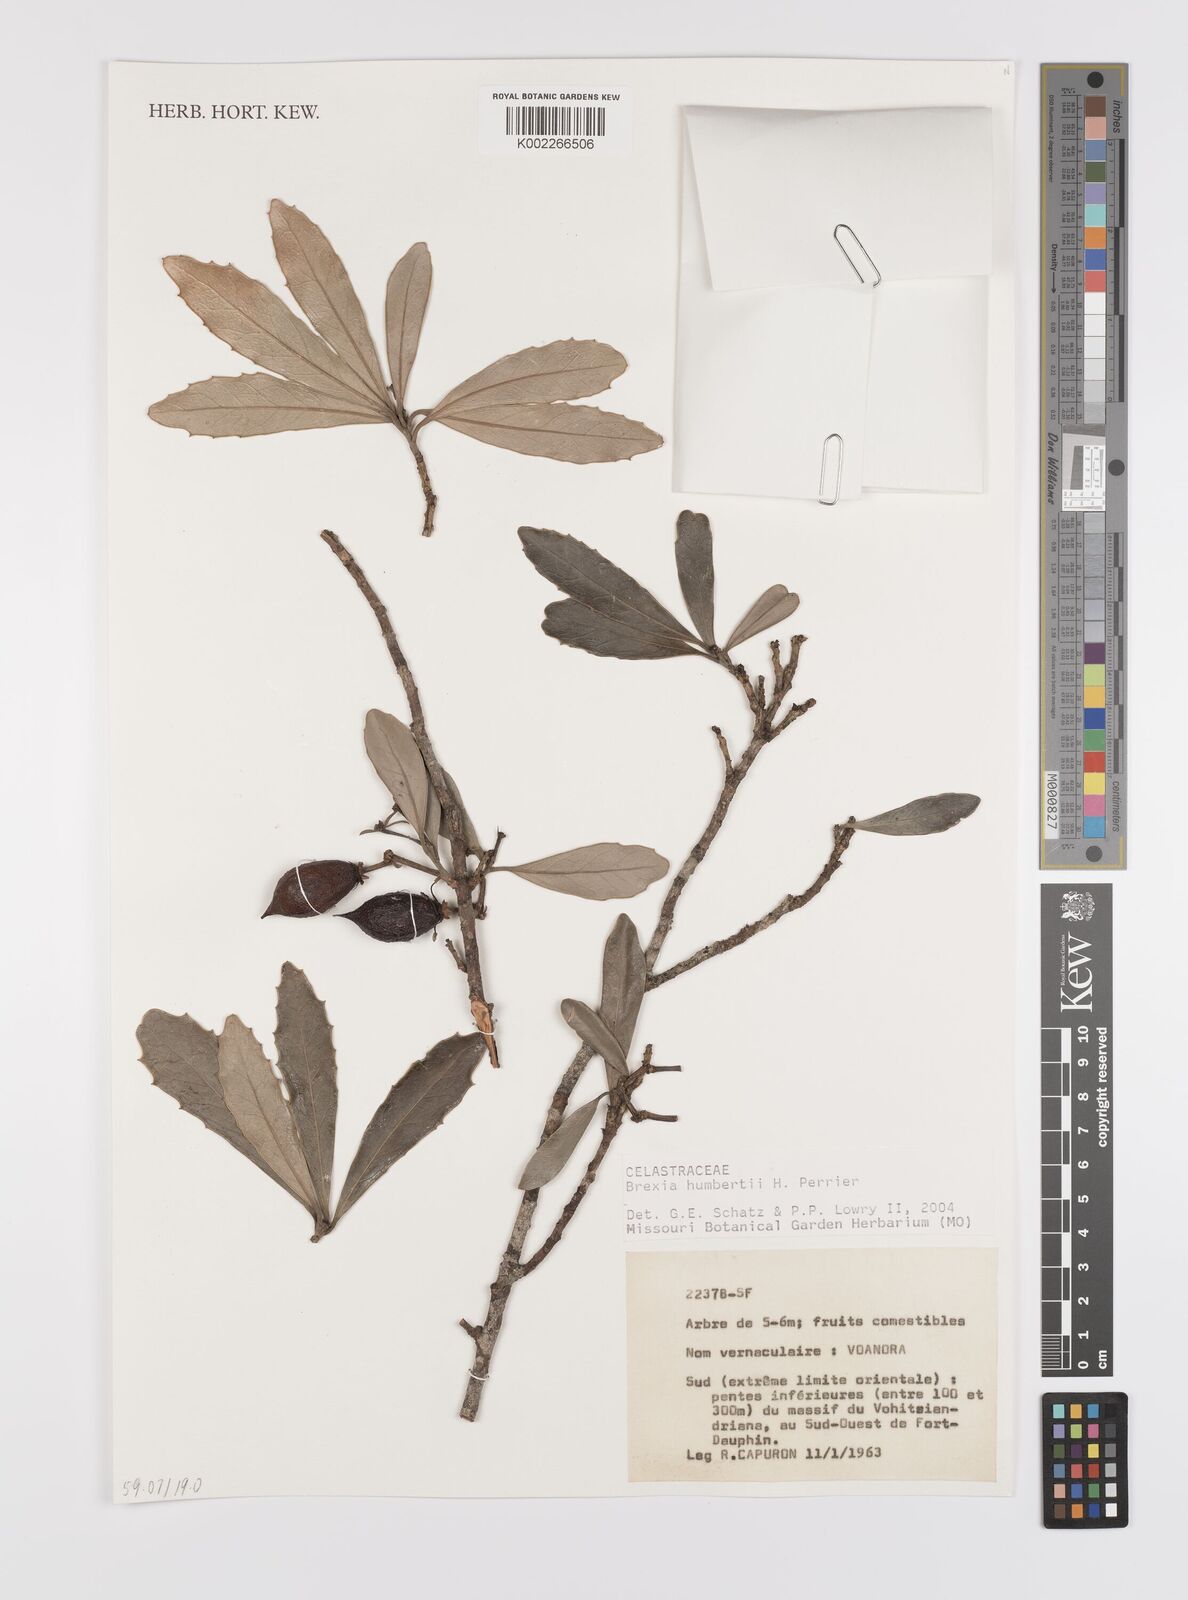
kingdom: Plantae
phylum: Tracheophyta
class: Magnoliopsida
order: Celastrales
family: Celastraceae
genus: Brexia
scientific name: Brexia humbertii
